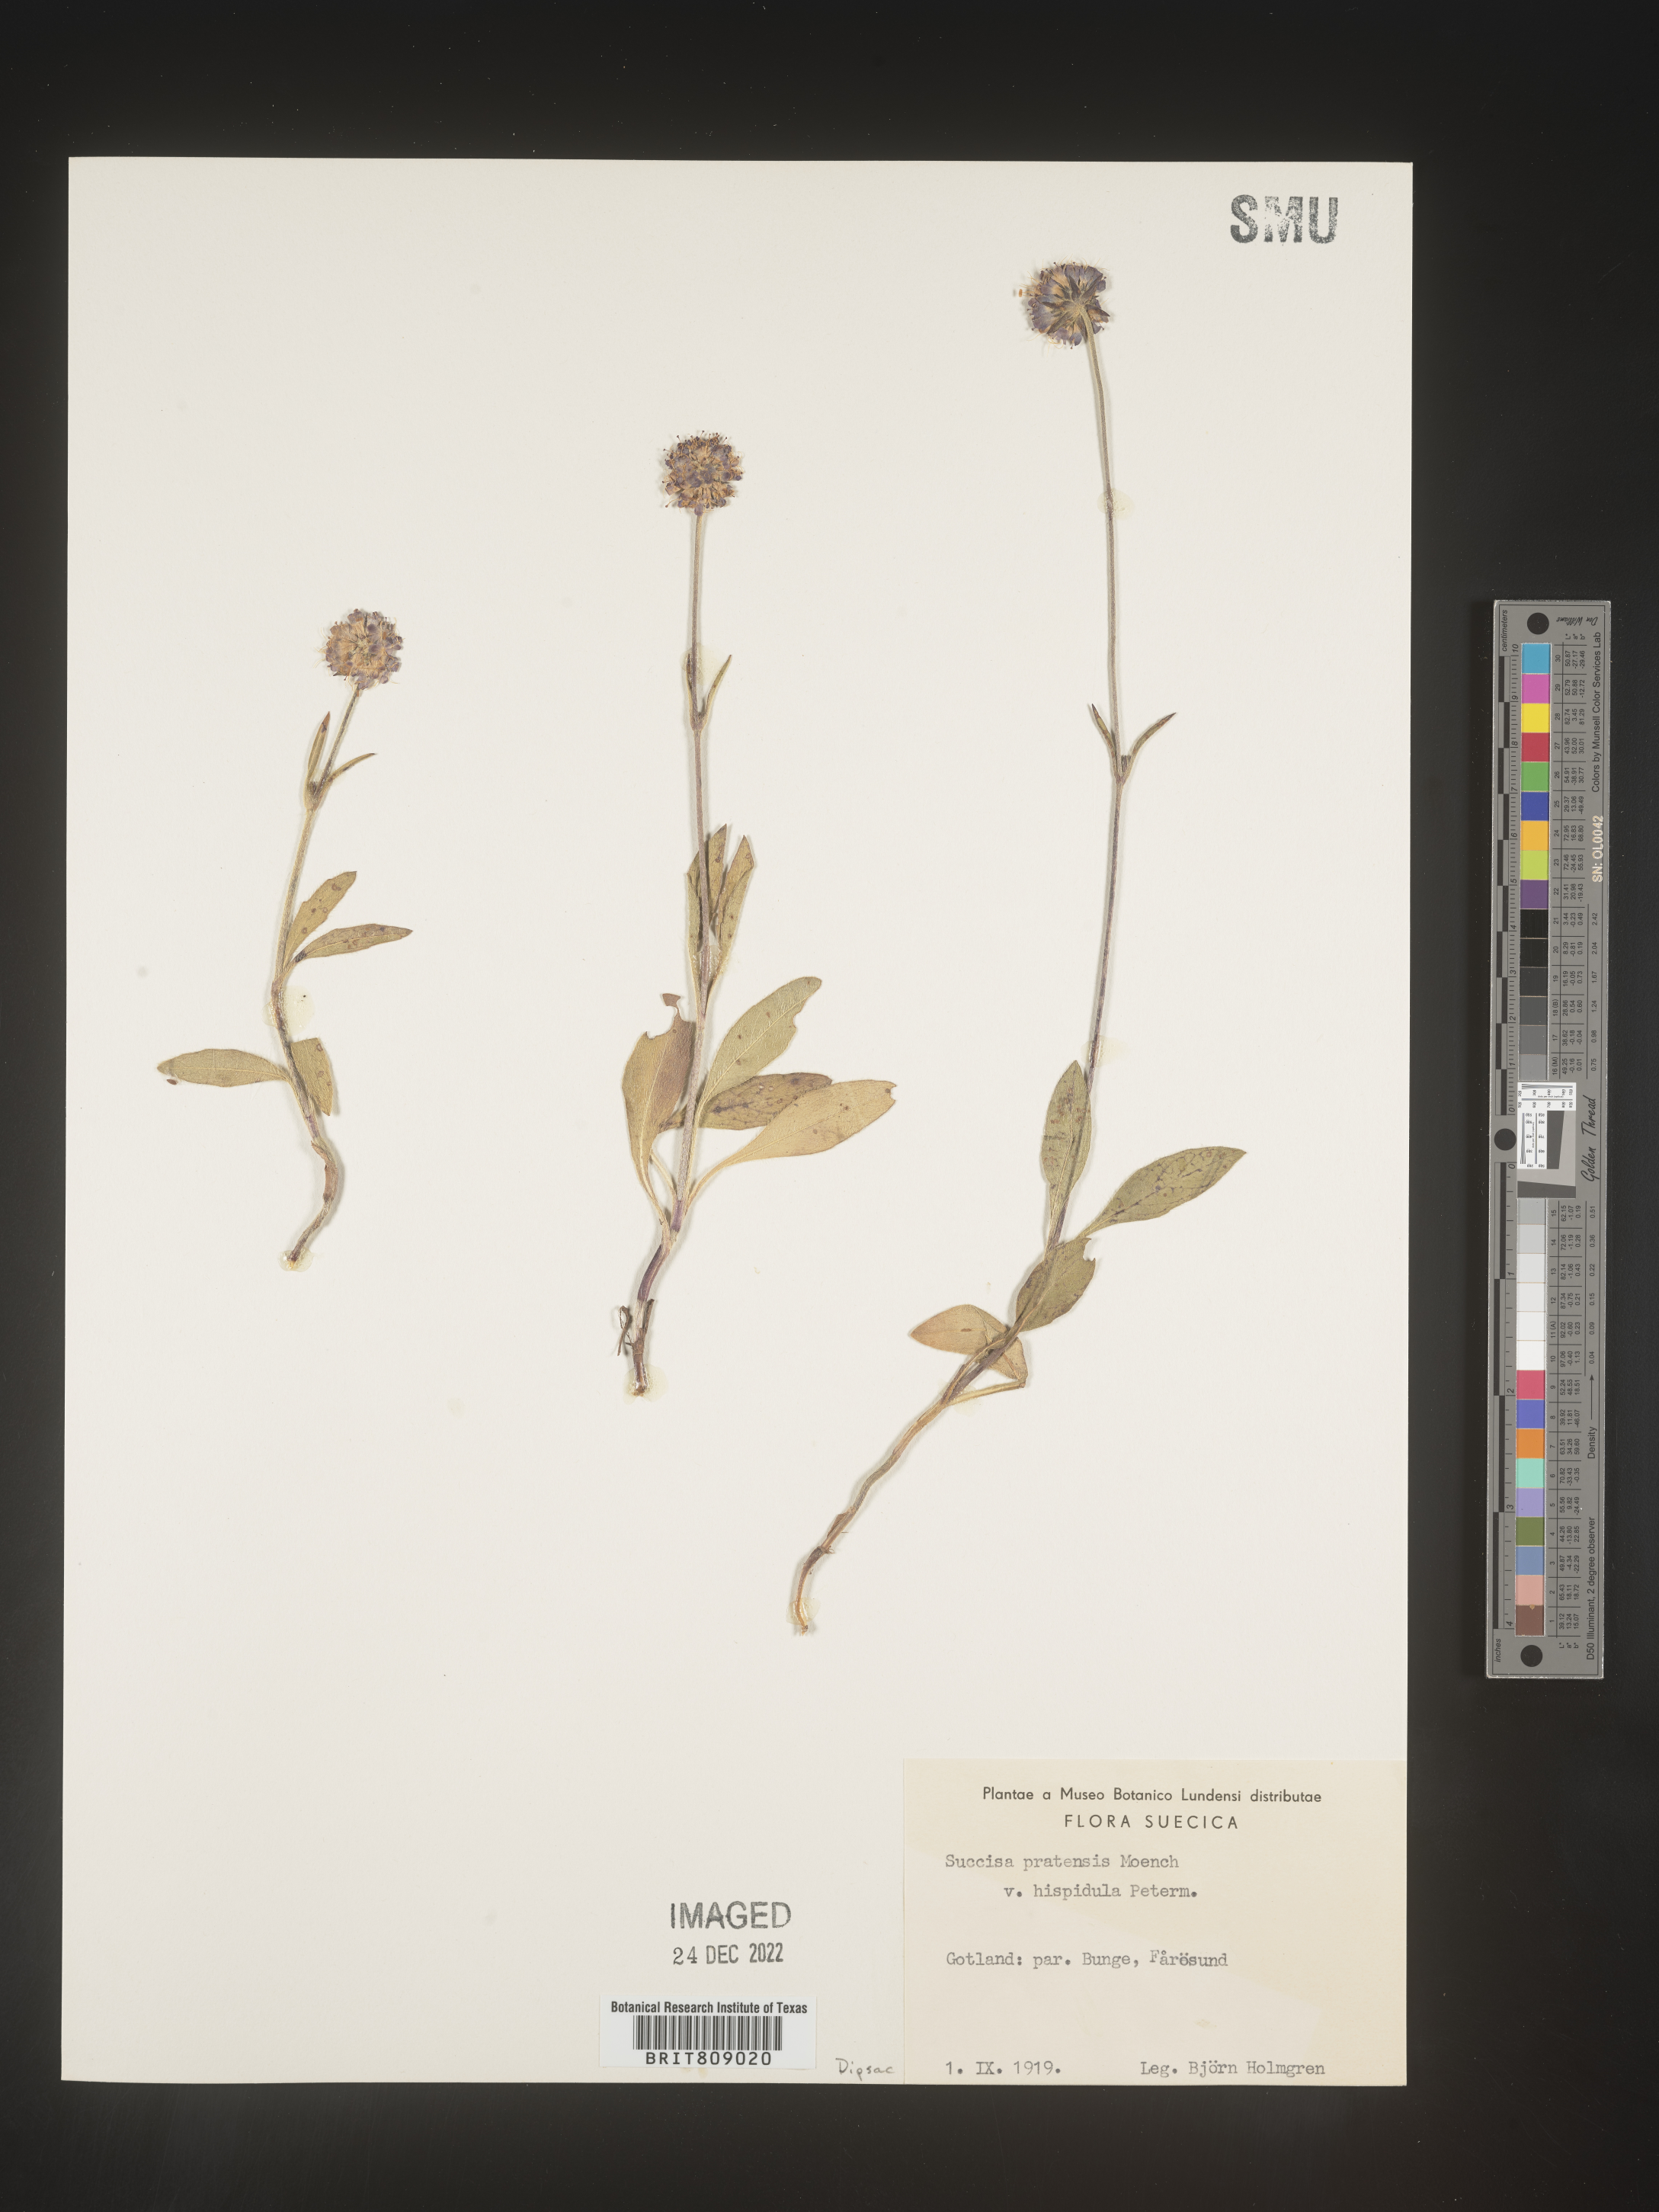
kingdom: Plantae
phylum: Tracheophyta
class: Magnoliopsida
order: Dipsacales
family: Caprifoliaceae
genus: Succisa
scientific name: Succisa
